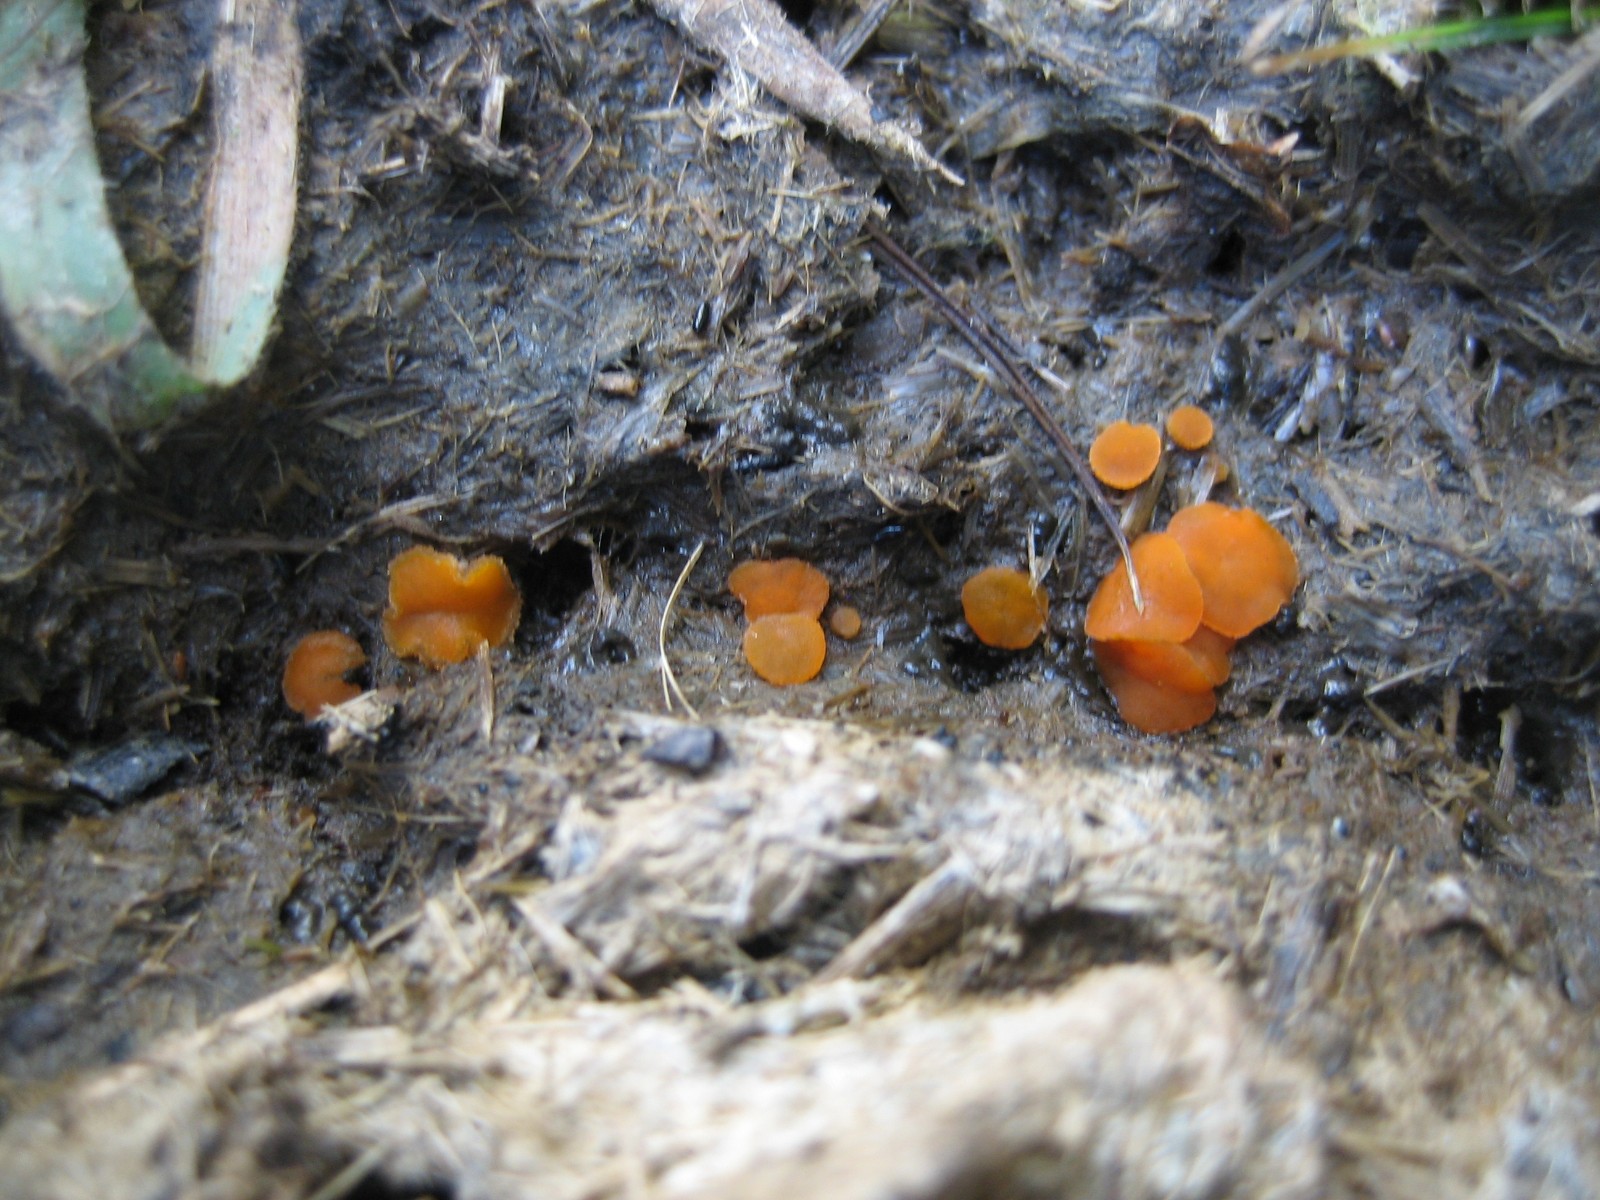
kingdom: Fungi
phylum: Ascomycota
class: Pezizomycetes
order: Pezizales
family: Pyronemataceae
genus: Cheilymenia
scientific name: Cheilymenia granulata
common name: møgbæger
